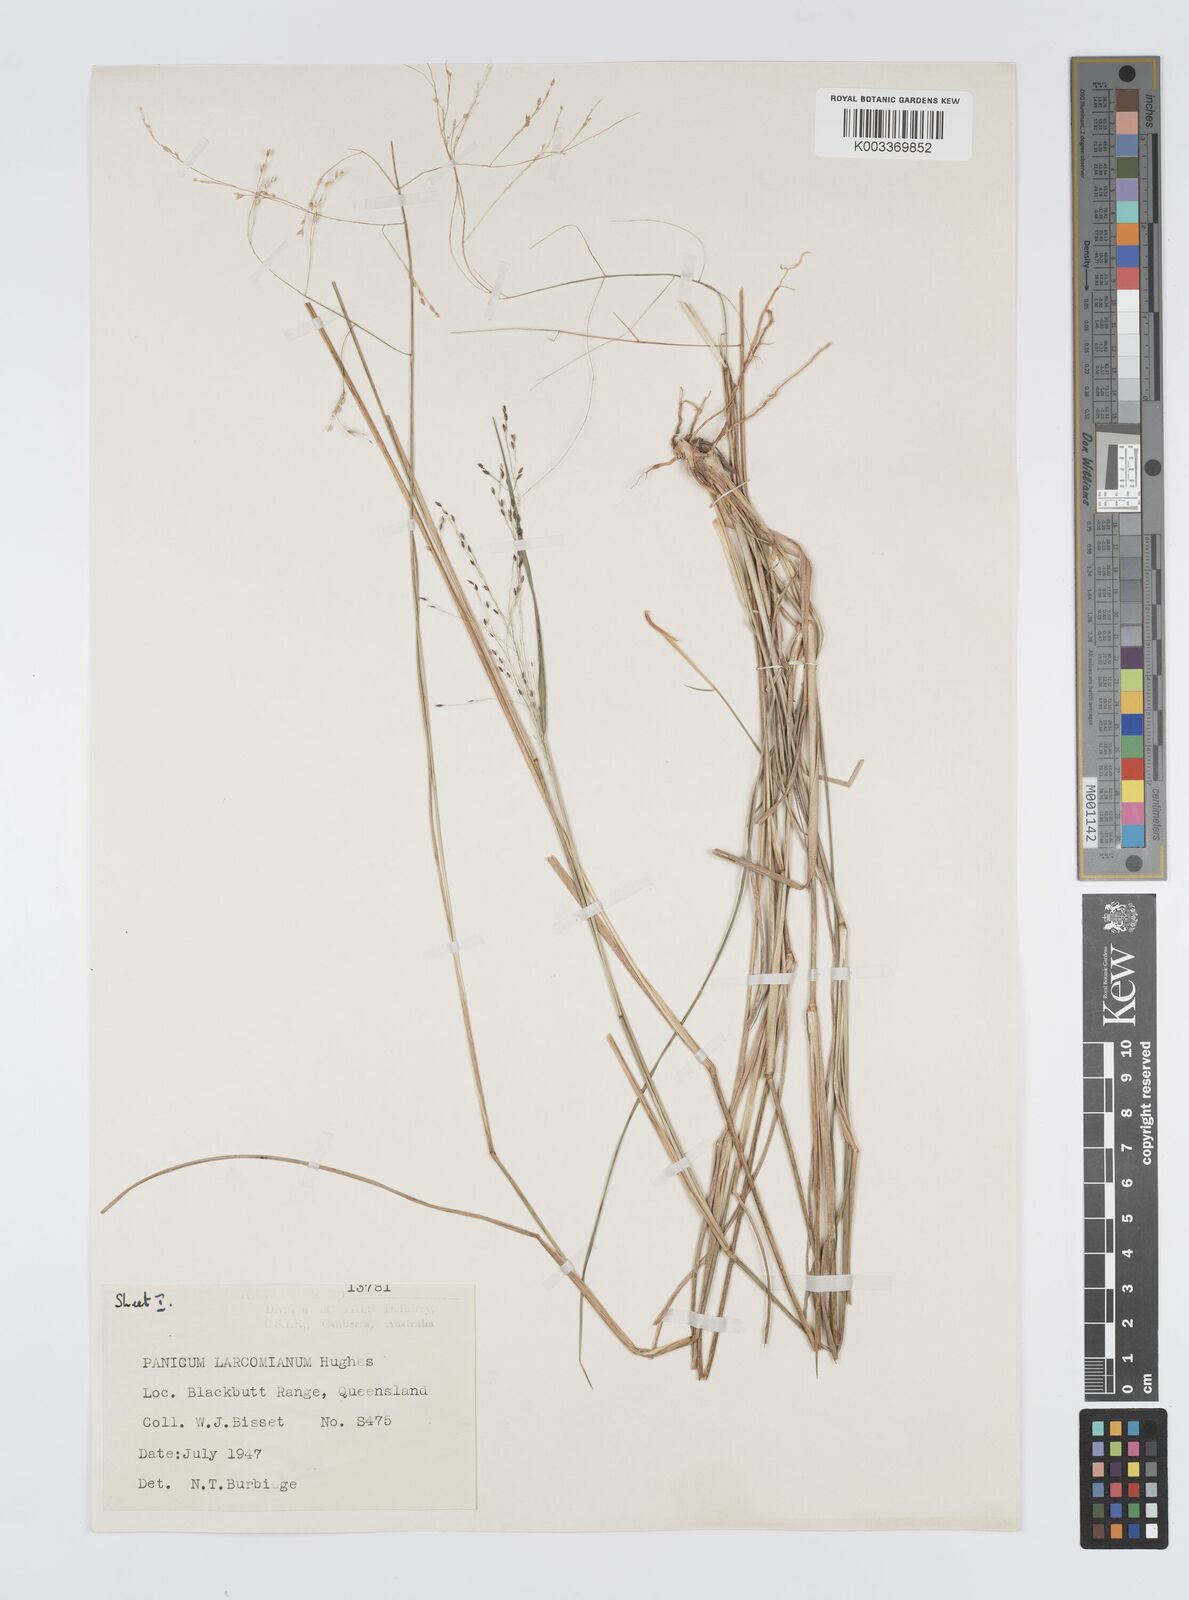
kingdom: Plantae
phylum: Tracheophyta
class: Liliopsida
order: Poales
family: Poaceae
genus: Panicum
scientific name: Panicum larcomianum
